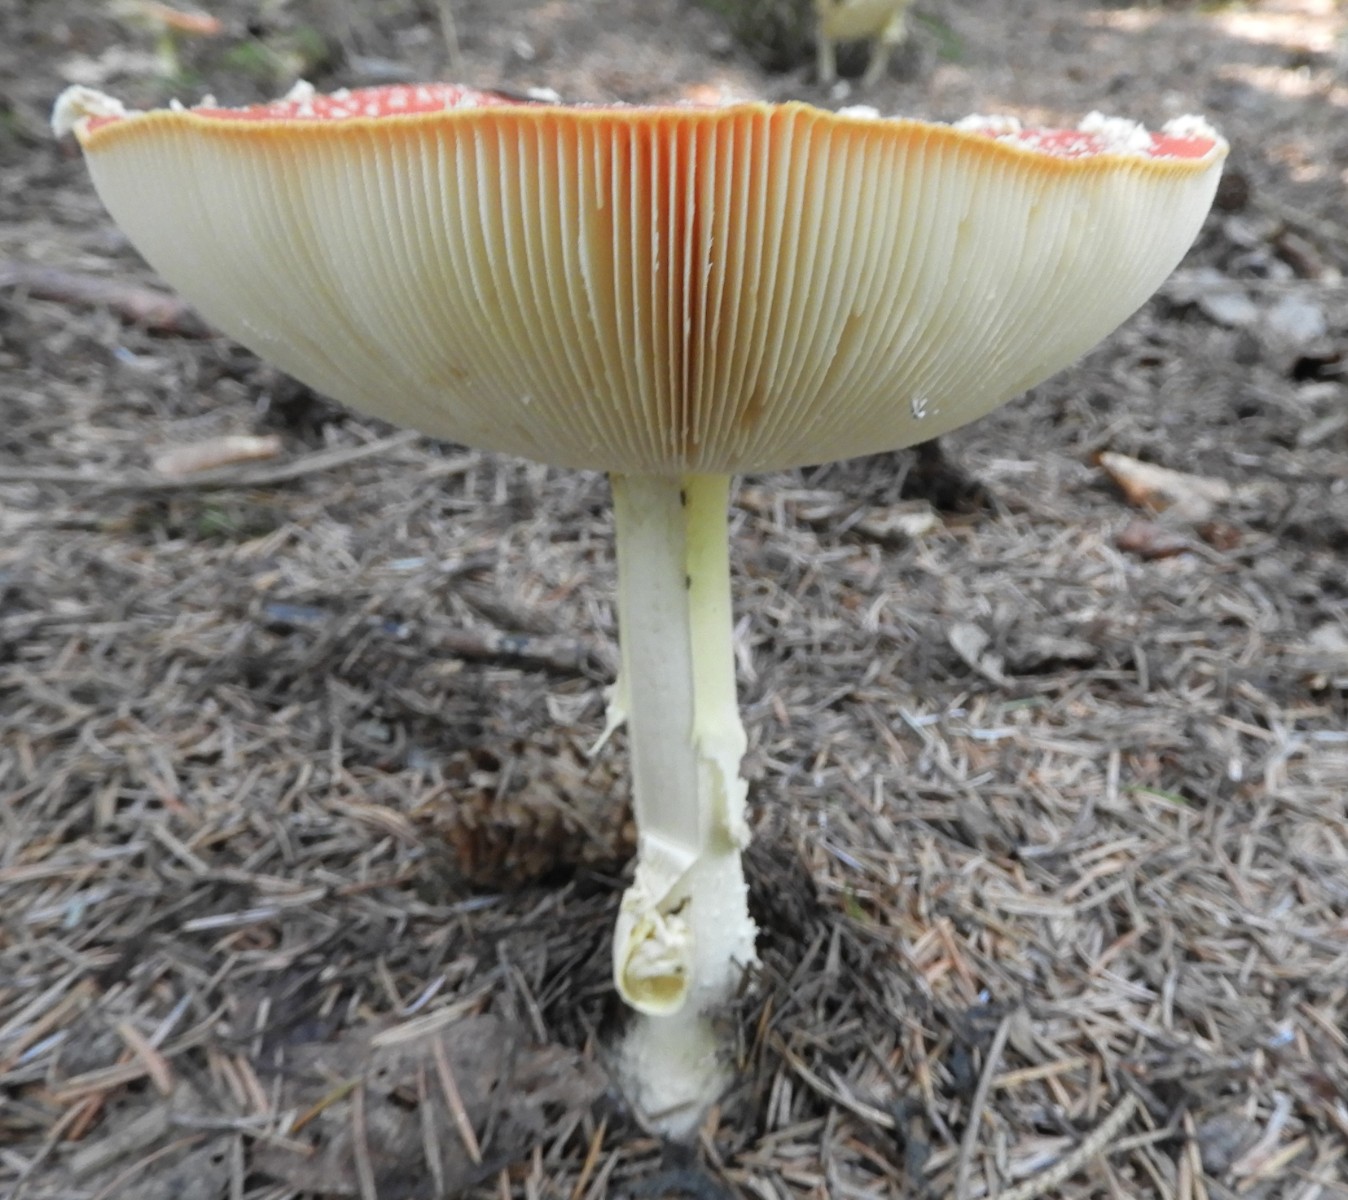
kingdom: Fungi
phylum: Basidiomycota
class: Agaricomycetes
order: Agaricales
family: Amanitaceae
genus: Amanita
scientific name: Amanita muscaria
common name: rød fluesvamp
